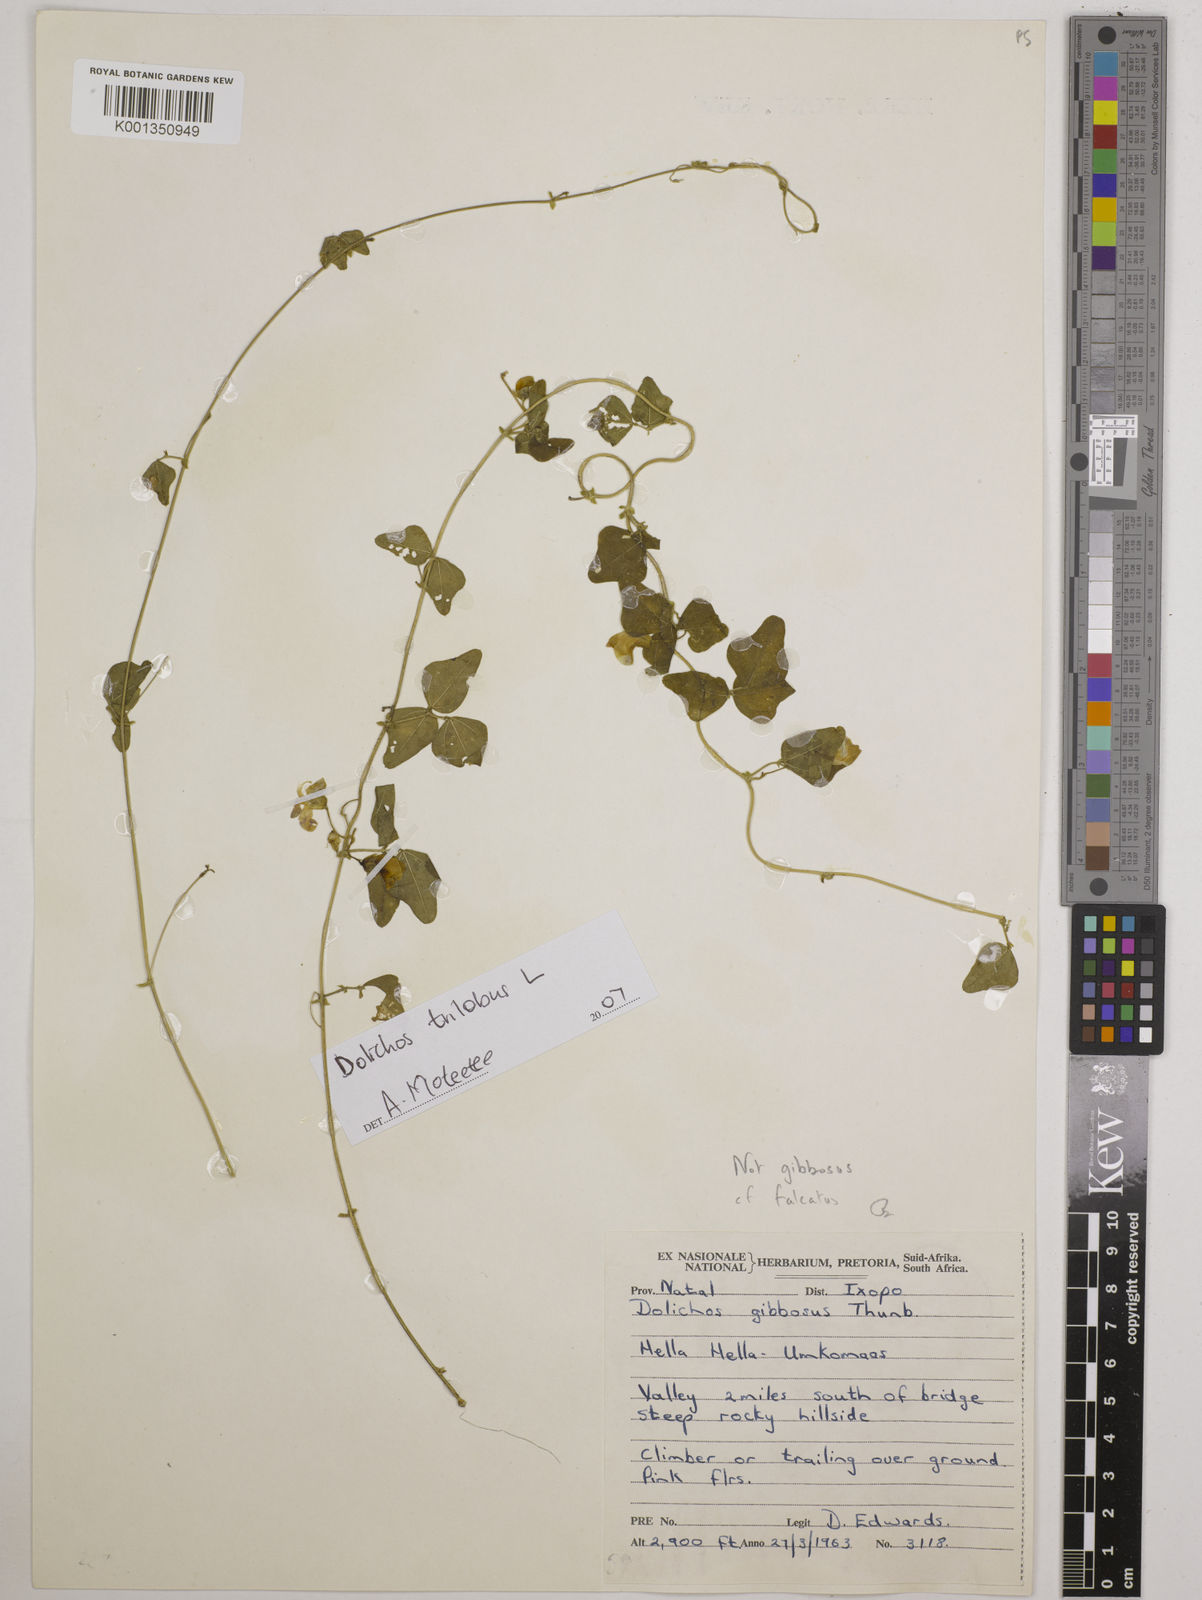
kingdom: Plantae
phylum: Tracheophyta
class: Magnoliopsida
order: Fabales
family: Fabaceae
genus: Dolichos
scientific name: Dolichos
